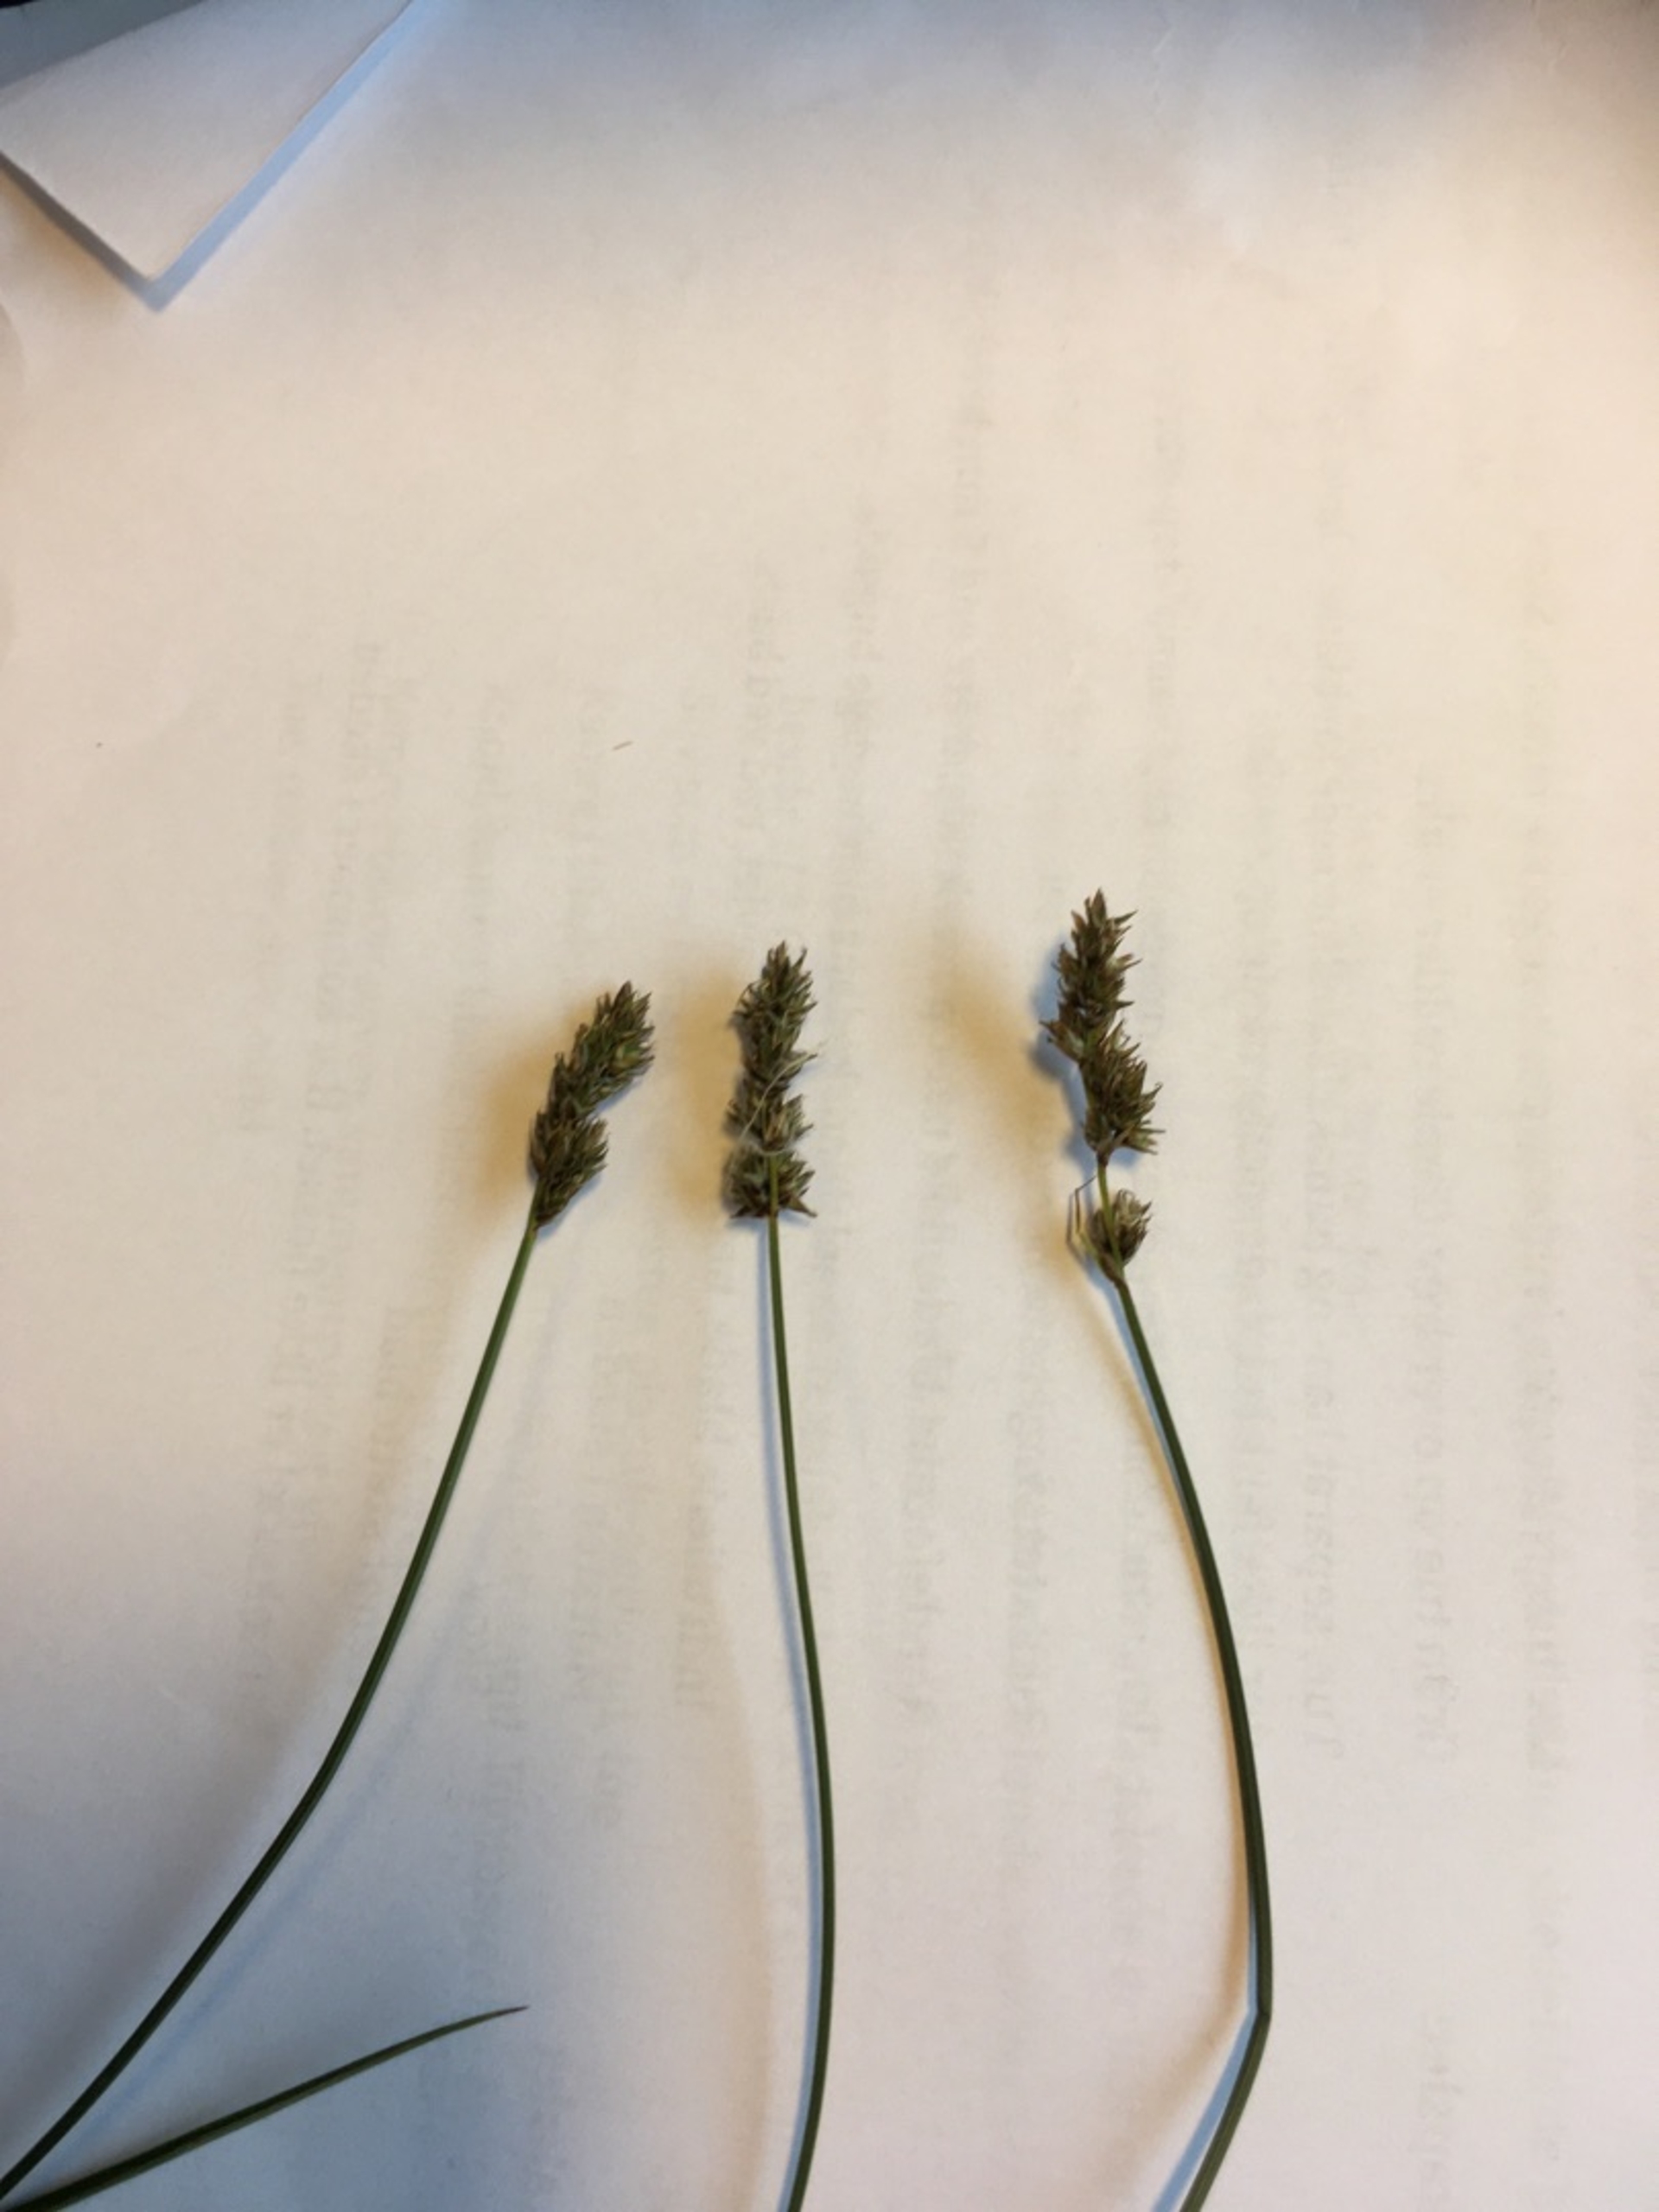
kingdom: Plantae
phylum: Tracheophyta
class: Liliopsida
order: Poales
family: Cyperaceae
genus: Carex
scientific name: Carex diandra
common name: Trindstænglet star
